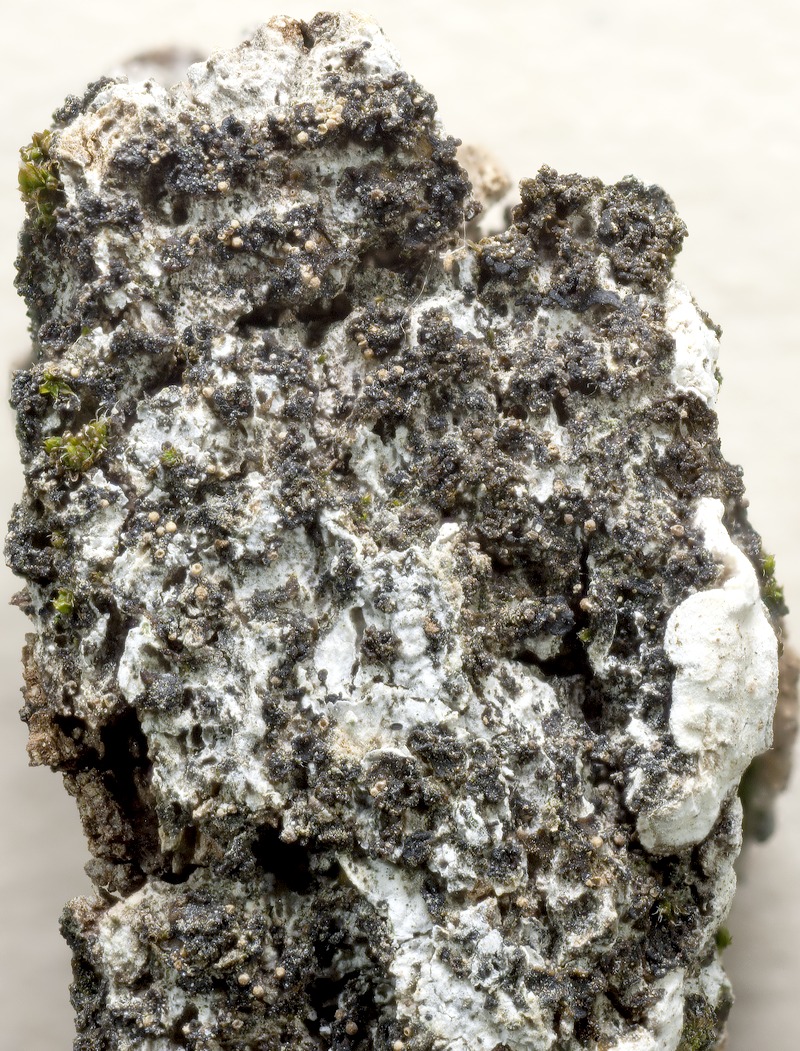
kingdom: Fungi
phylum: Ascomycota
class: Eurotiomycetes
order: Verrucariales
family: Verrucariaceae
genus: Muellerella
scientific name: Muellerella pygmaea
